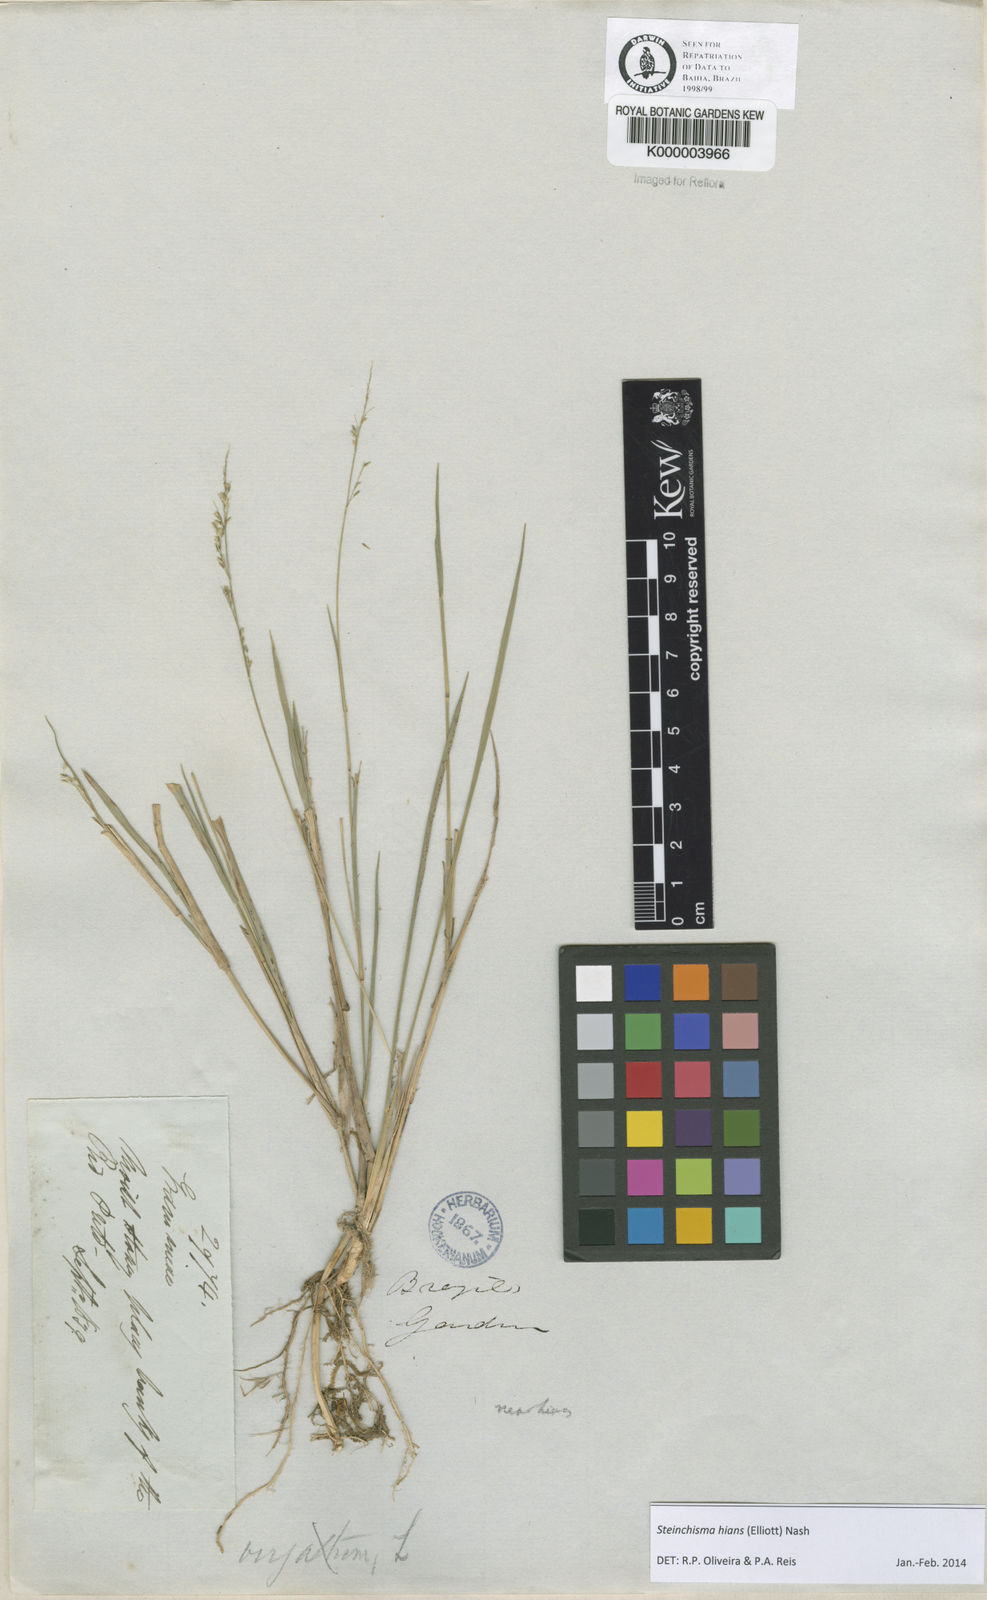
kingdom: Plantae
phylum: Tracheophyta
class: Liliopsida
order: Poales
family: Poaceae
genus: Steinchisma
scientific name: Steinchisma hians
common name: Gaping panic grass
